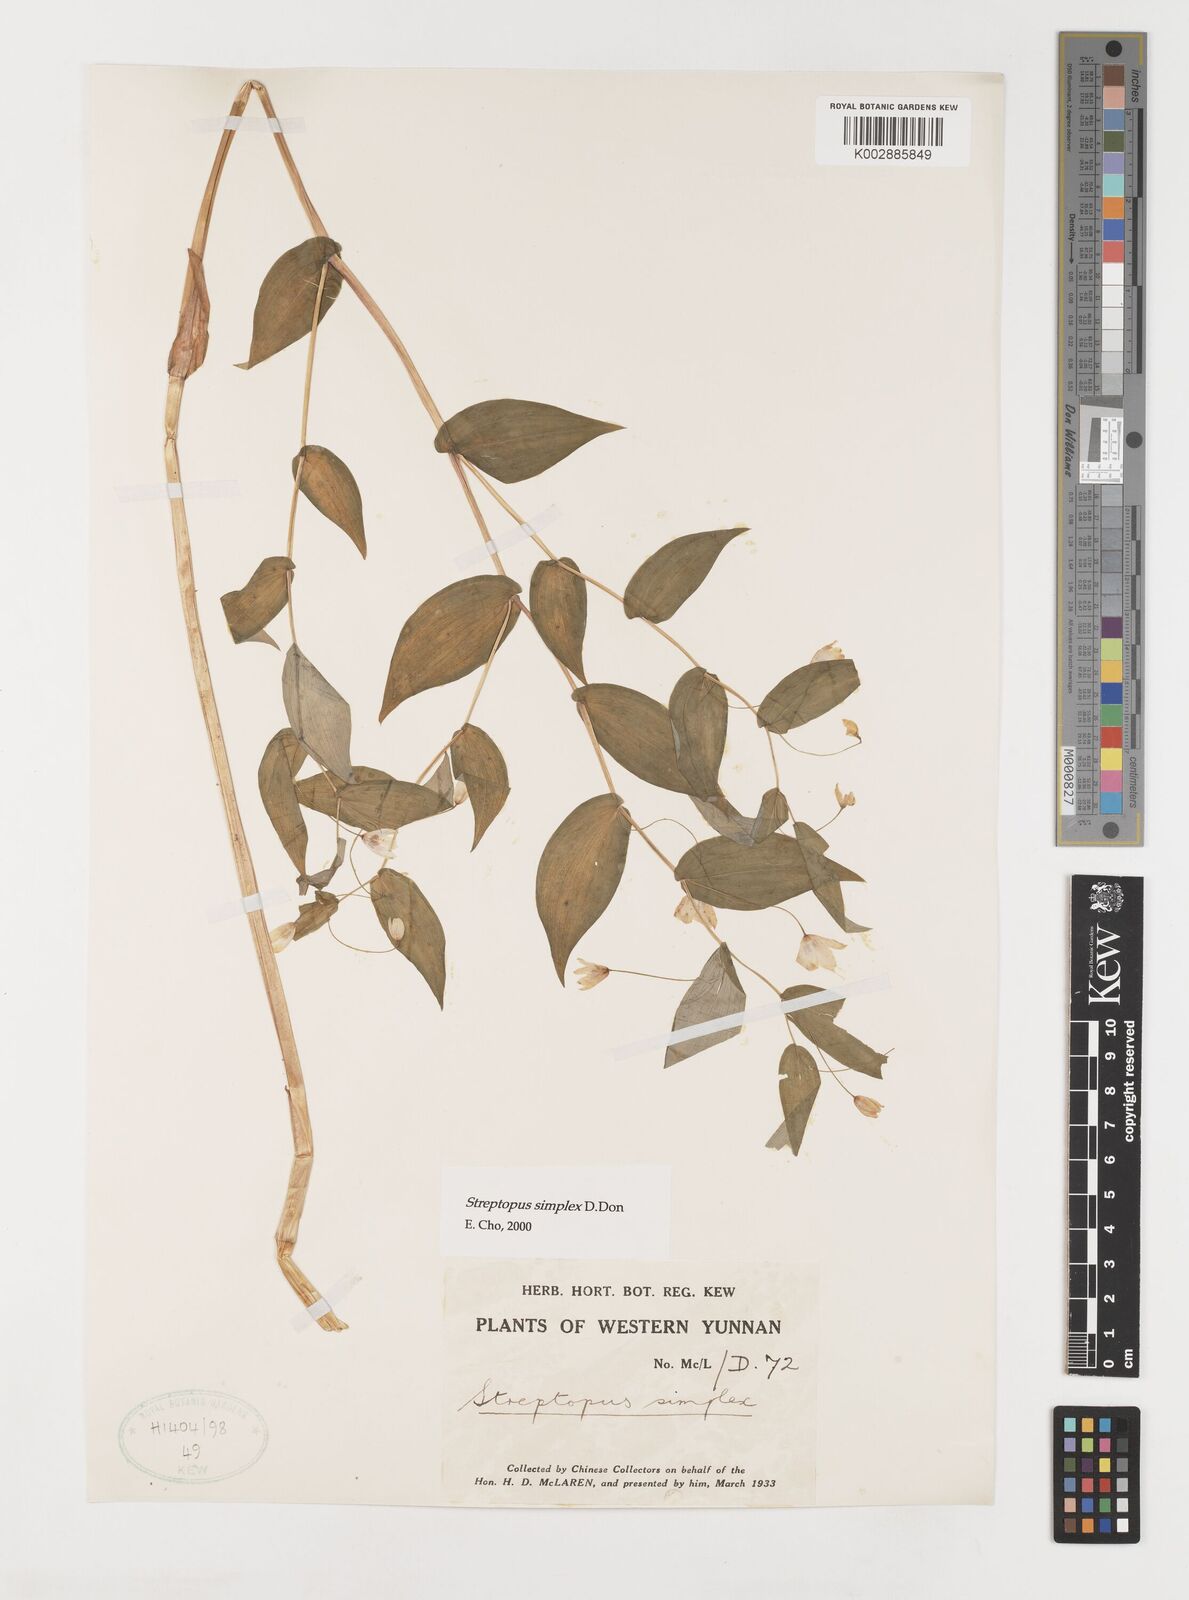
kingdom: Plantae
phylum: Tracheophyta
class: Liliopsida
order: Liliales
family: Liliaceae
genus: Streptopus
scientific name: Streptopus simplex
